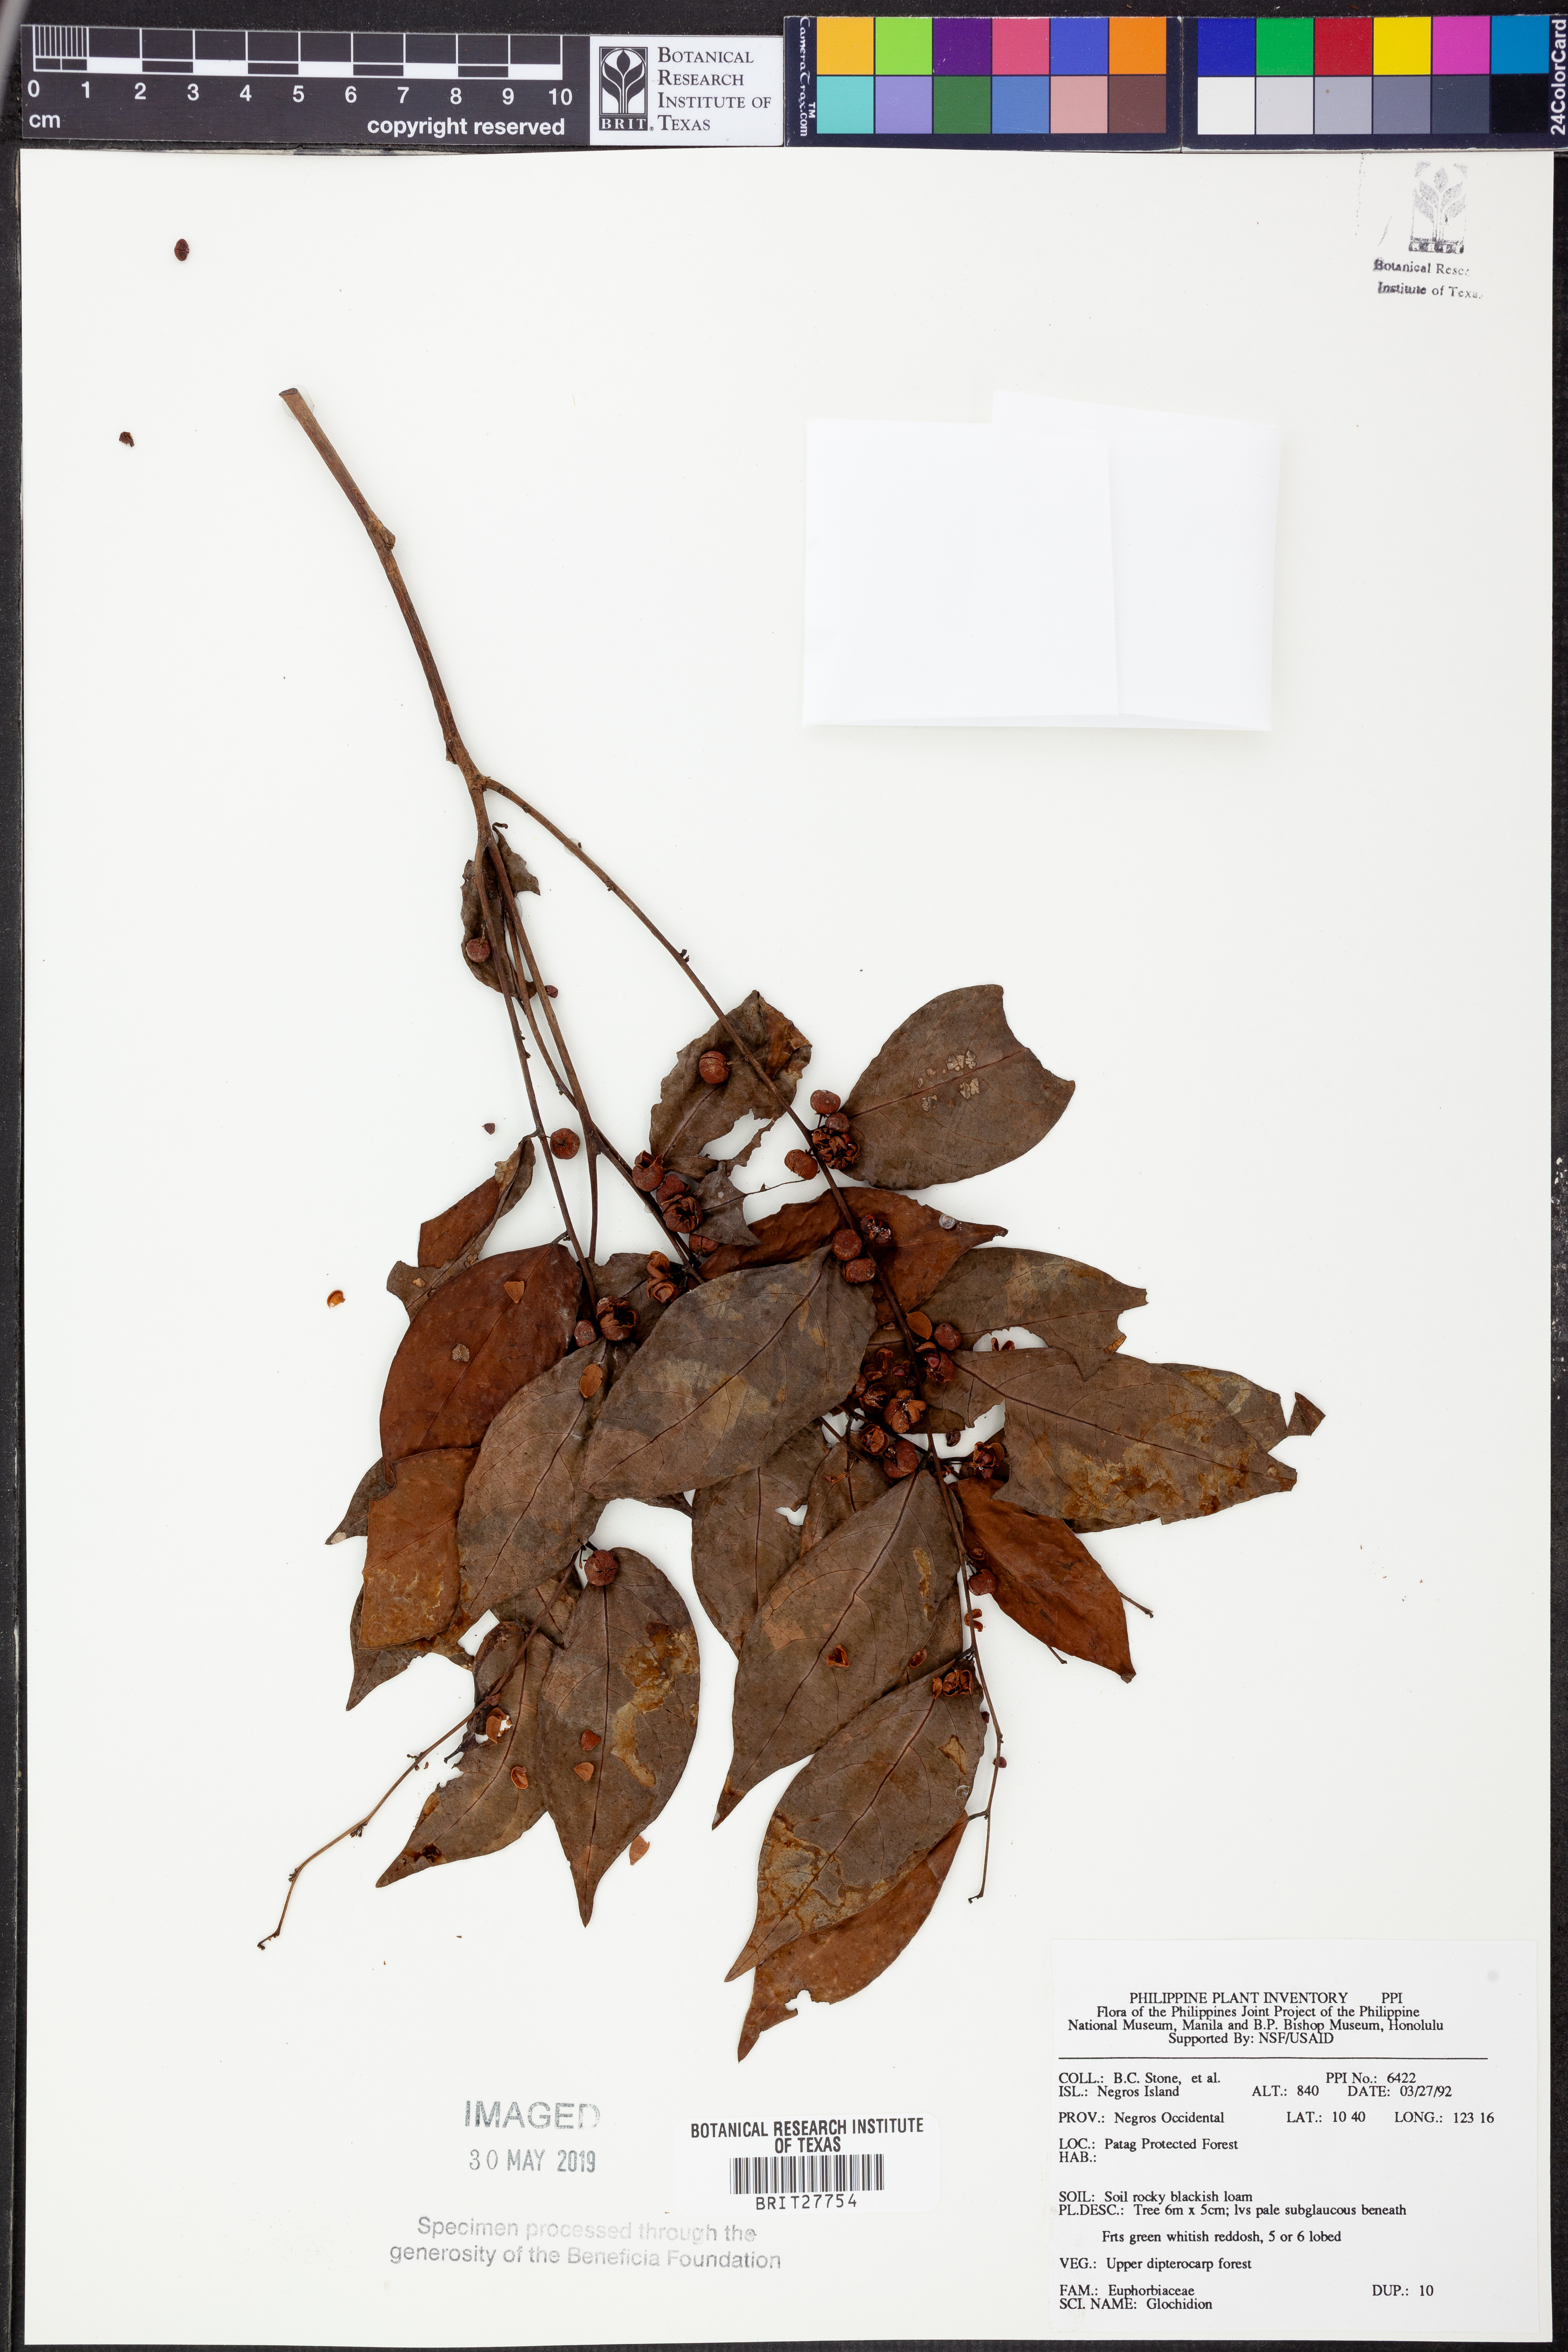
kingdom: Plantae
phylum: Tracheophyta
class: Magnoliopsida
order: Malpighiales
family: Phyllanthaceae
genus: Glochidion
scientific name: Glochidion
